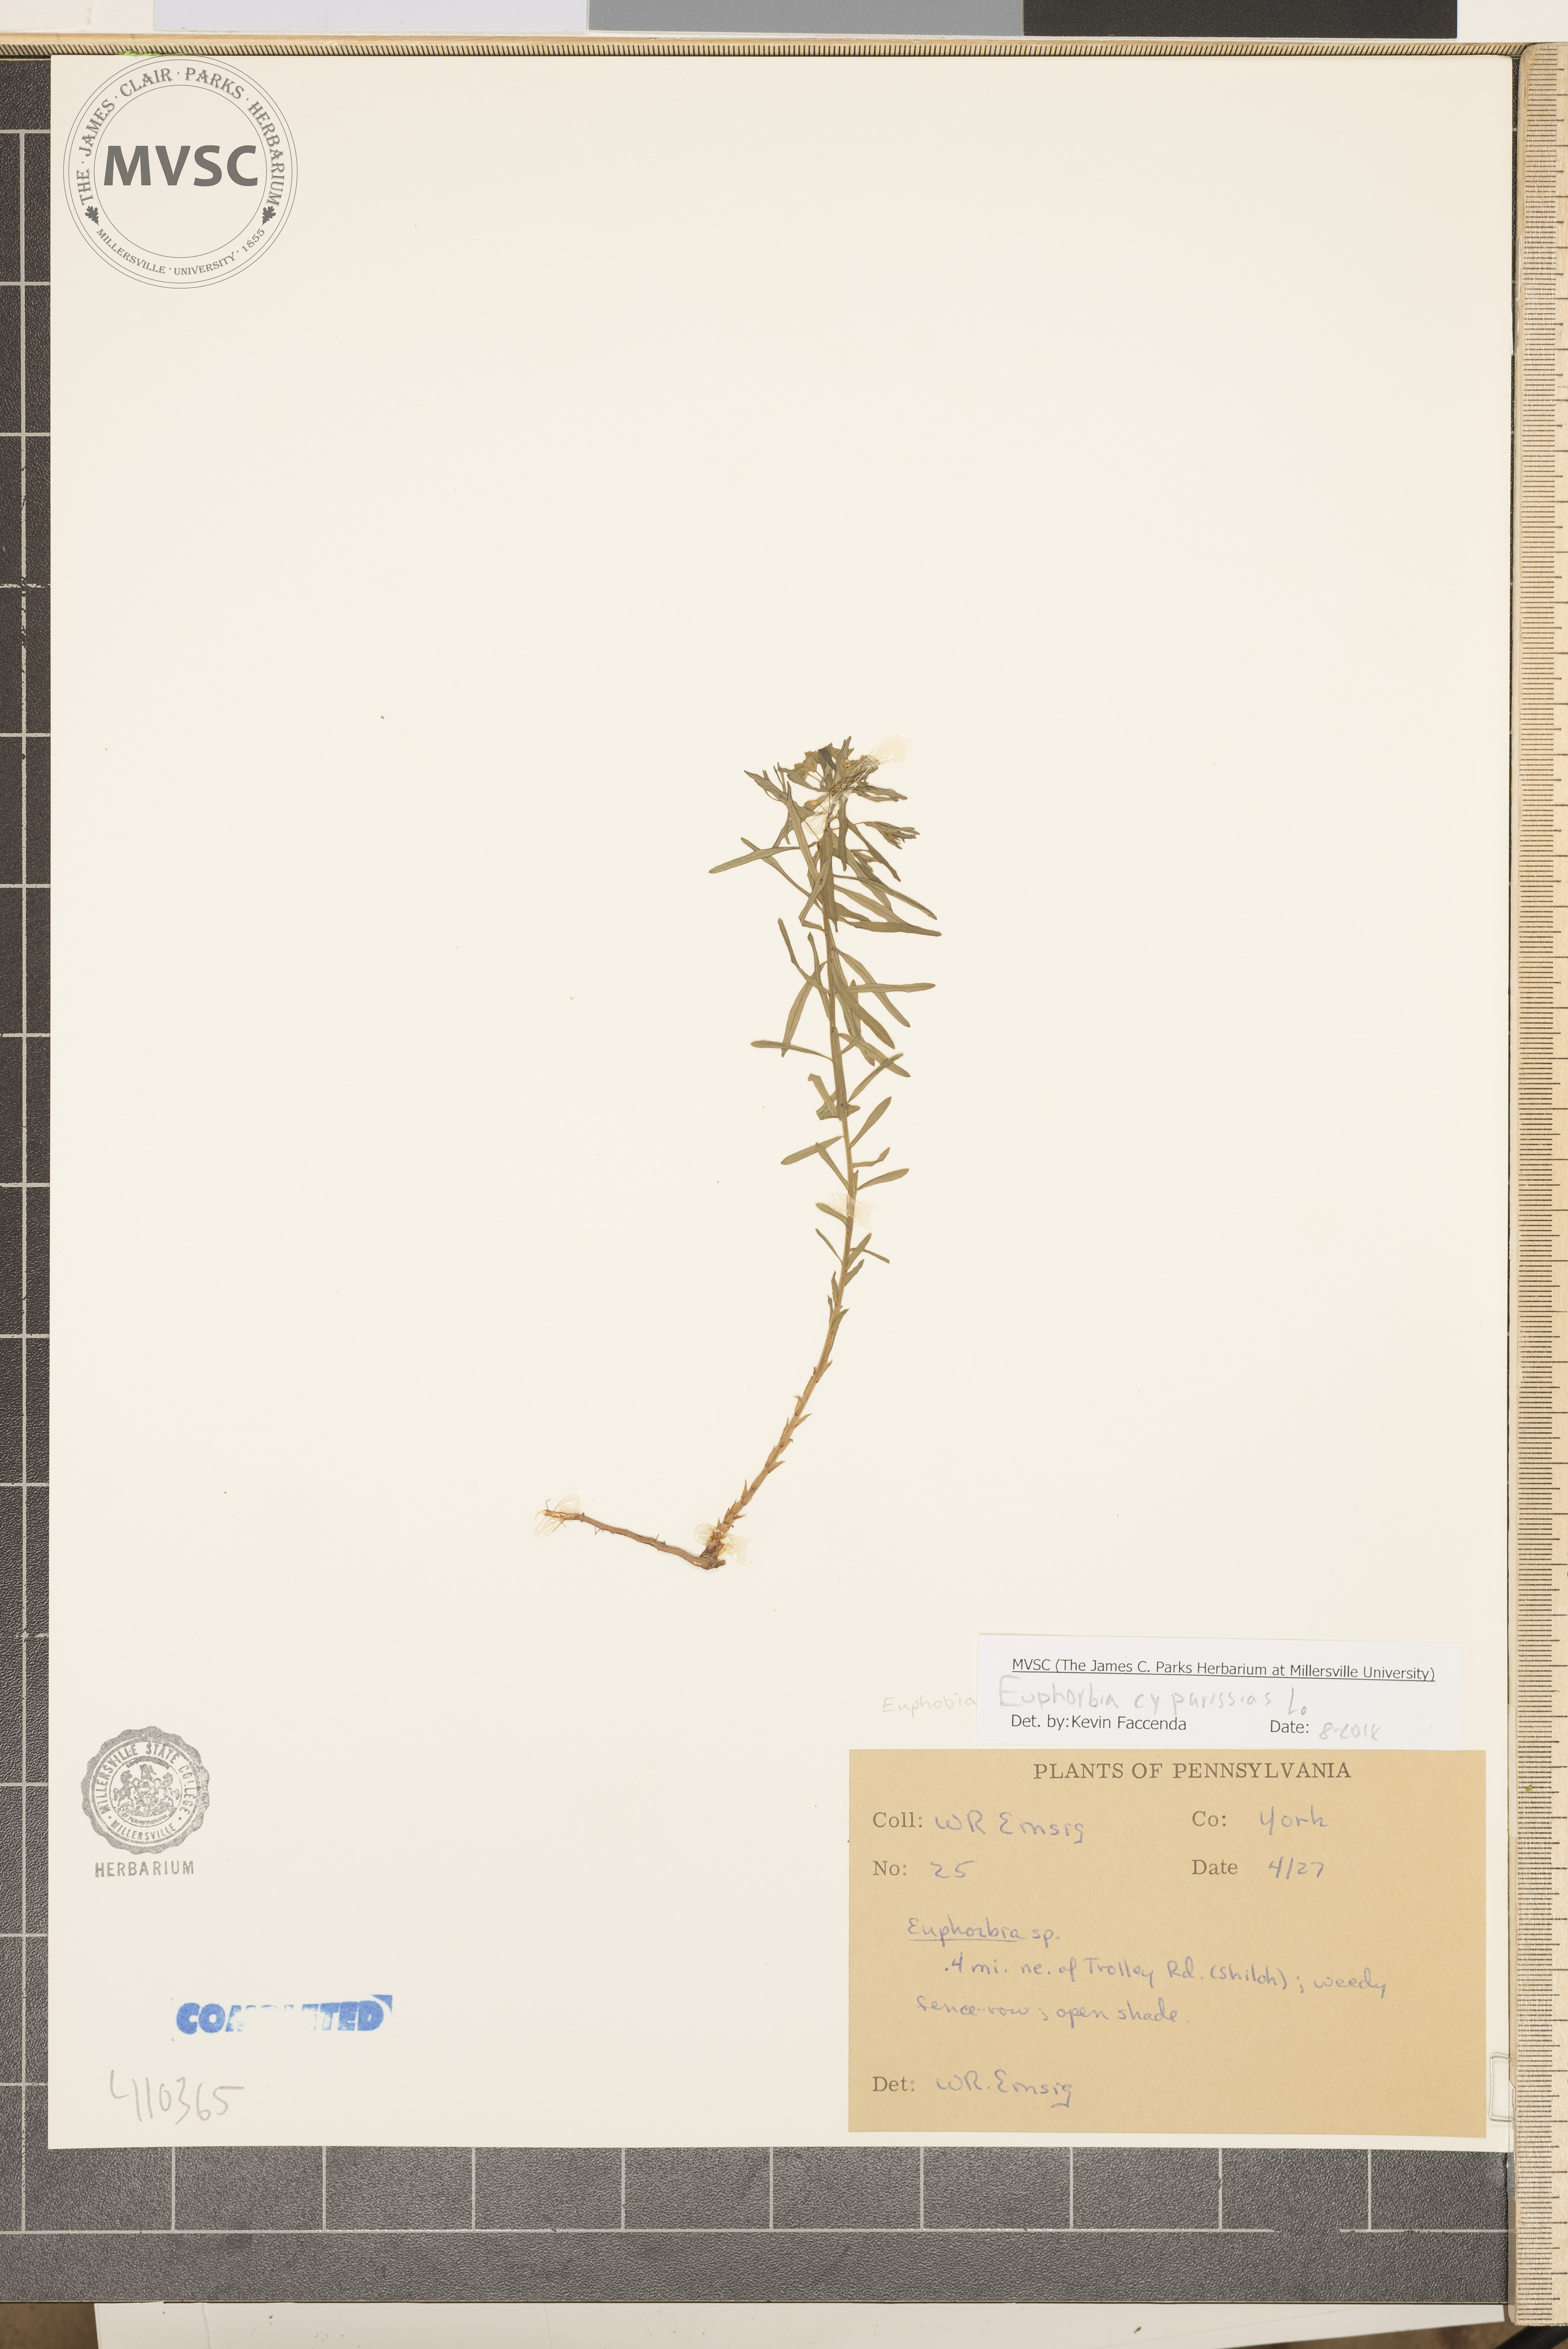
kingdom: Plantae
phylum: Tracheophyta
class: Magnoliopsida
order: Malpighiales
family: Euphorbiaceae
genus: Euphorbia
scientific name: Euphorbia cyparissias
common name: Cypress spurge
